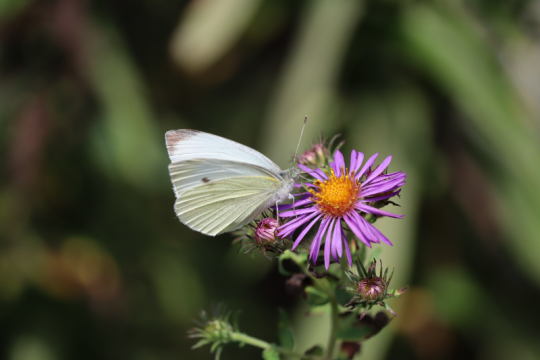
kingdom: Animalia
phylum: Arthropoda
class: Insecta
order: Lepidoptera
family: Pieridae
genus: Pieris
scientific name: Pieris rapae
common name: Cabbage White
